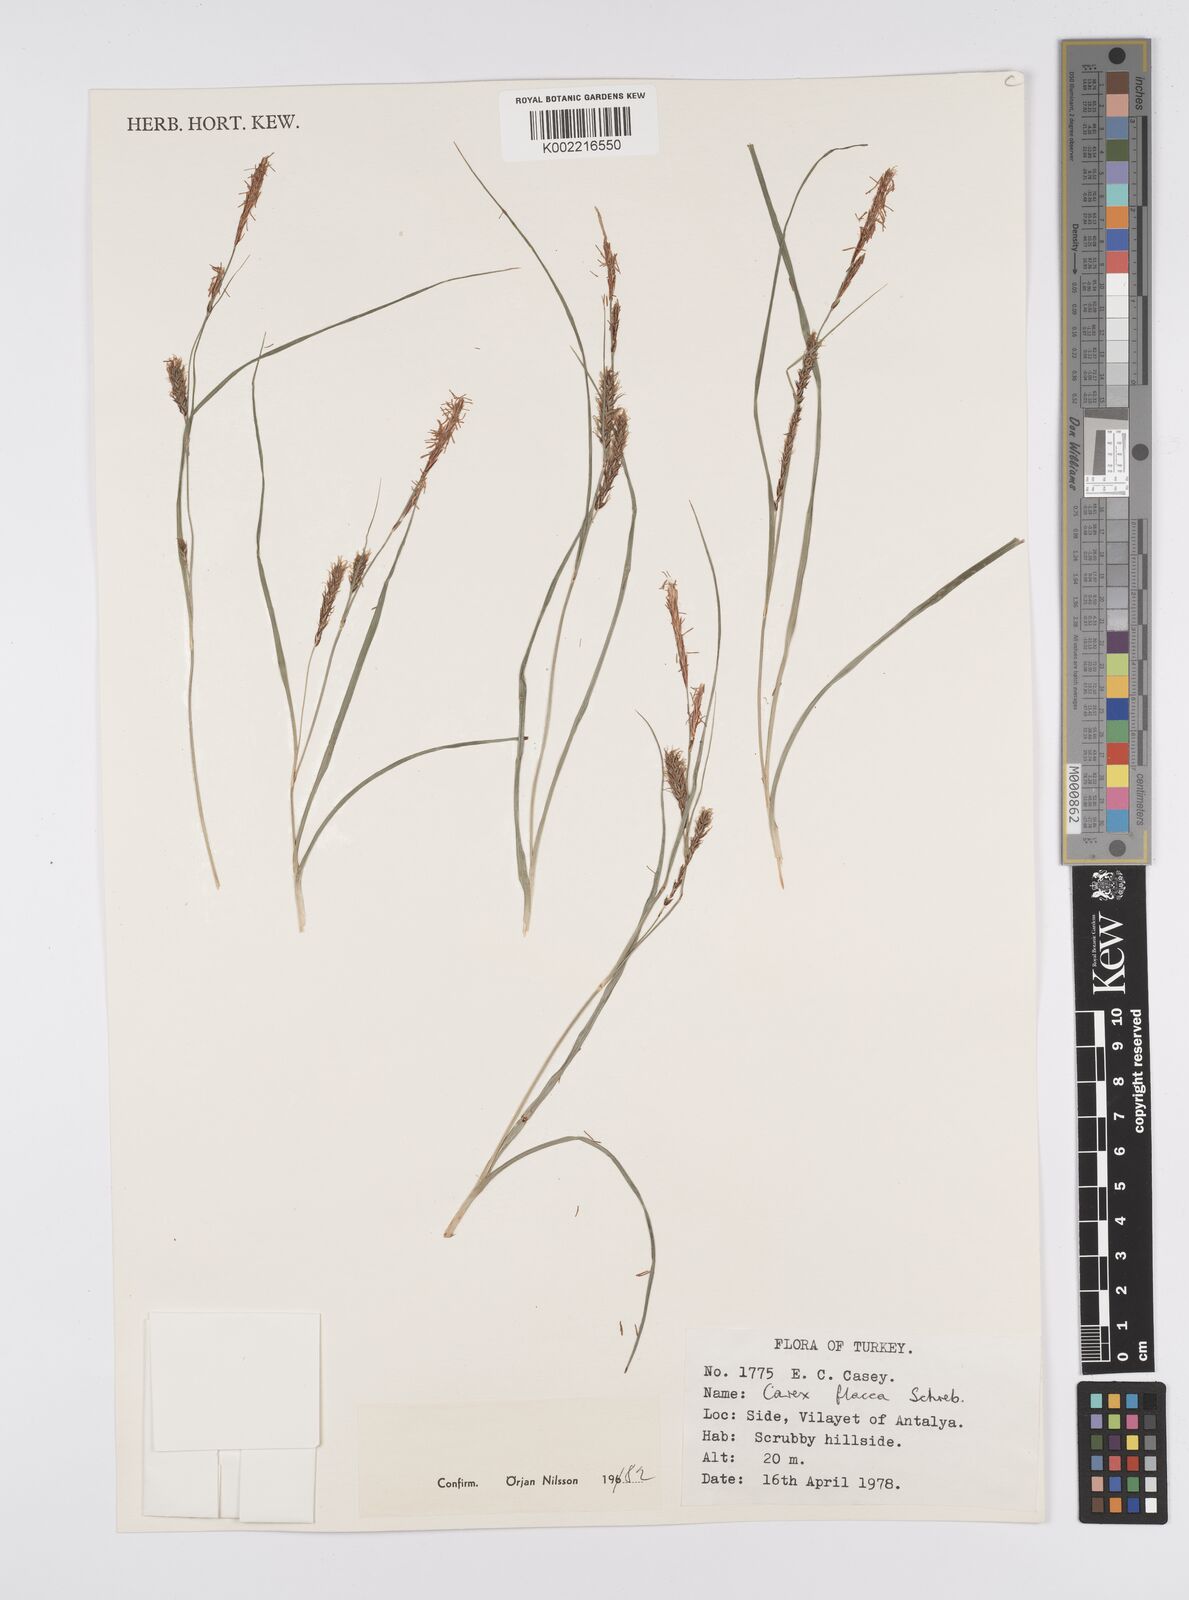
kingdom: Plantae
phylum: Tracheophyta
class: Liliopsida
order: Poales
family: Cyperaceae
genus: Carex
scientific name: Carex flacca
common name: Glaucous sedge
